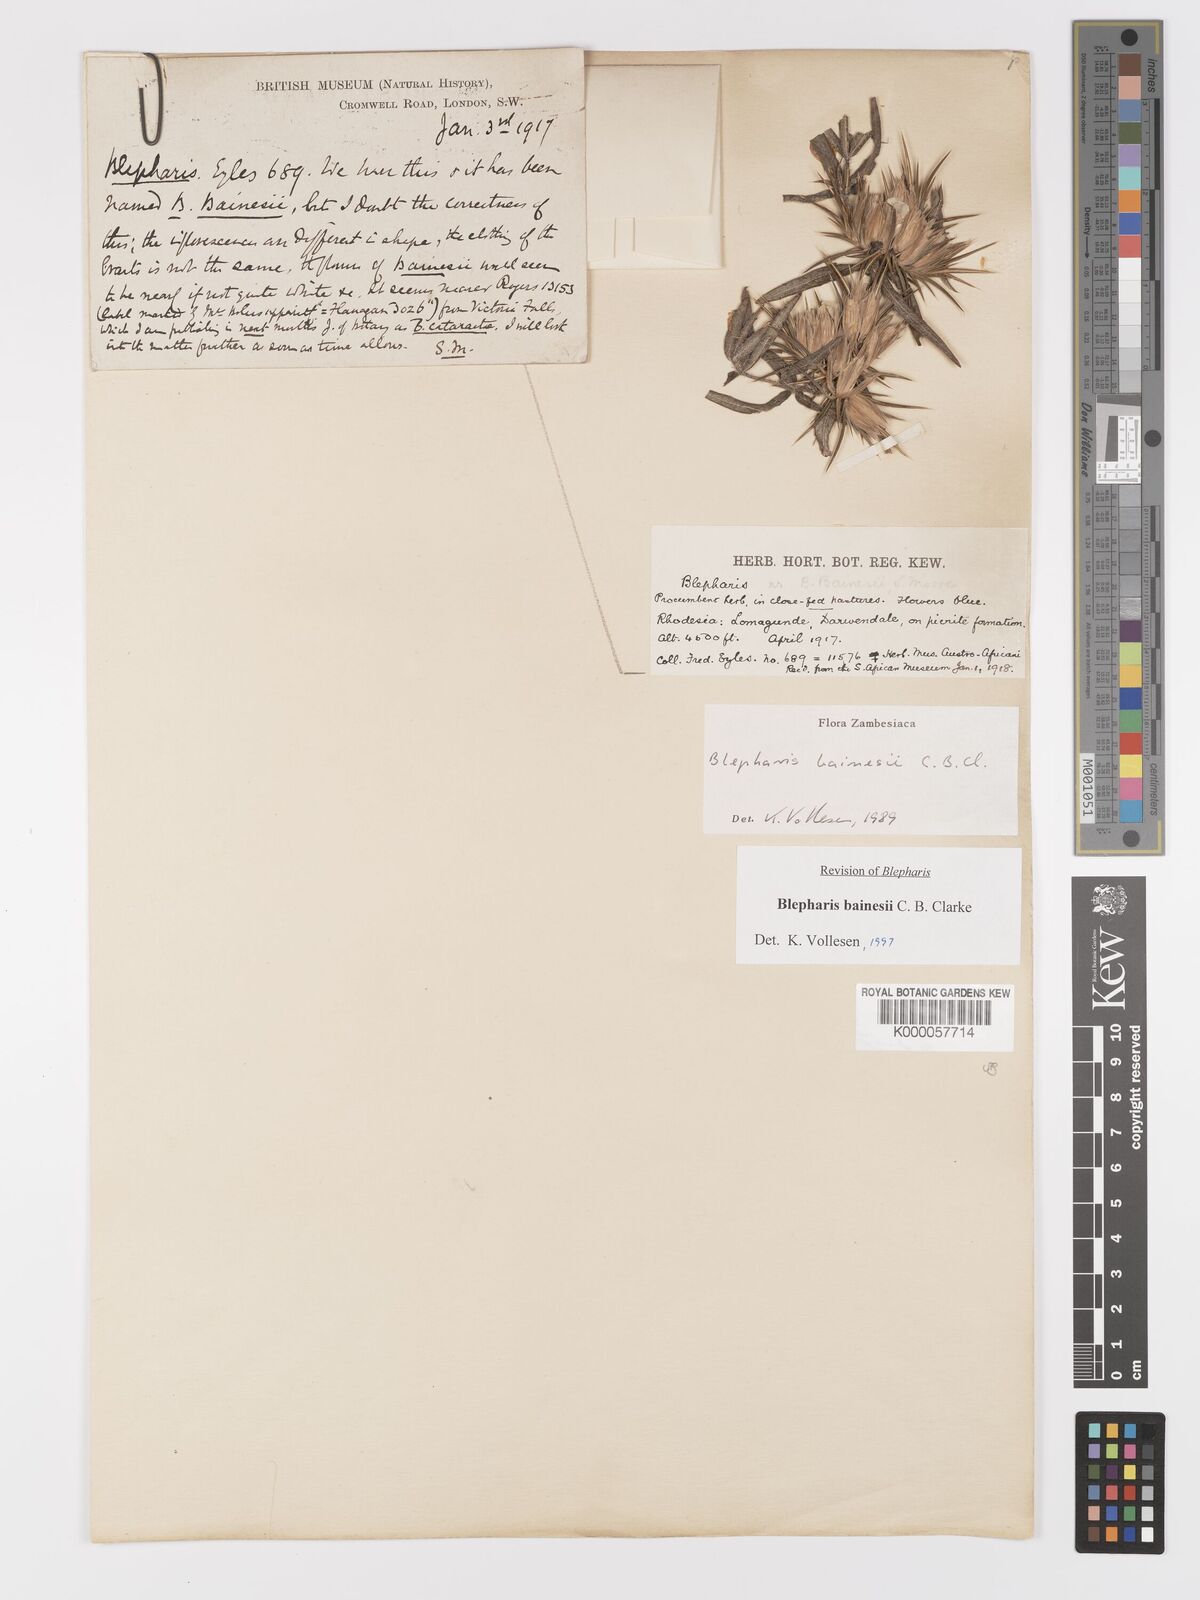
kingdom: Plantae
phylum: Tracheophyta
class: Magnoliopsida
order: Lamiales
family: Acanthaceae
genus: Blepharis
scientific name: Blepharis bainesii
